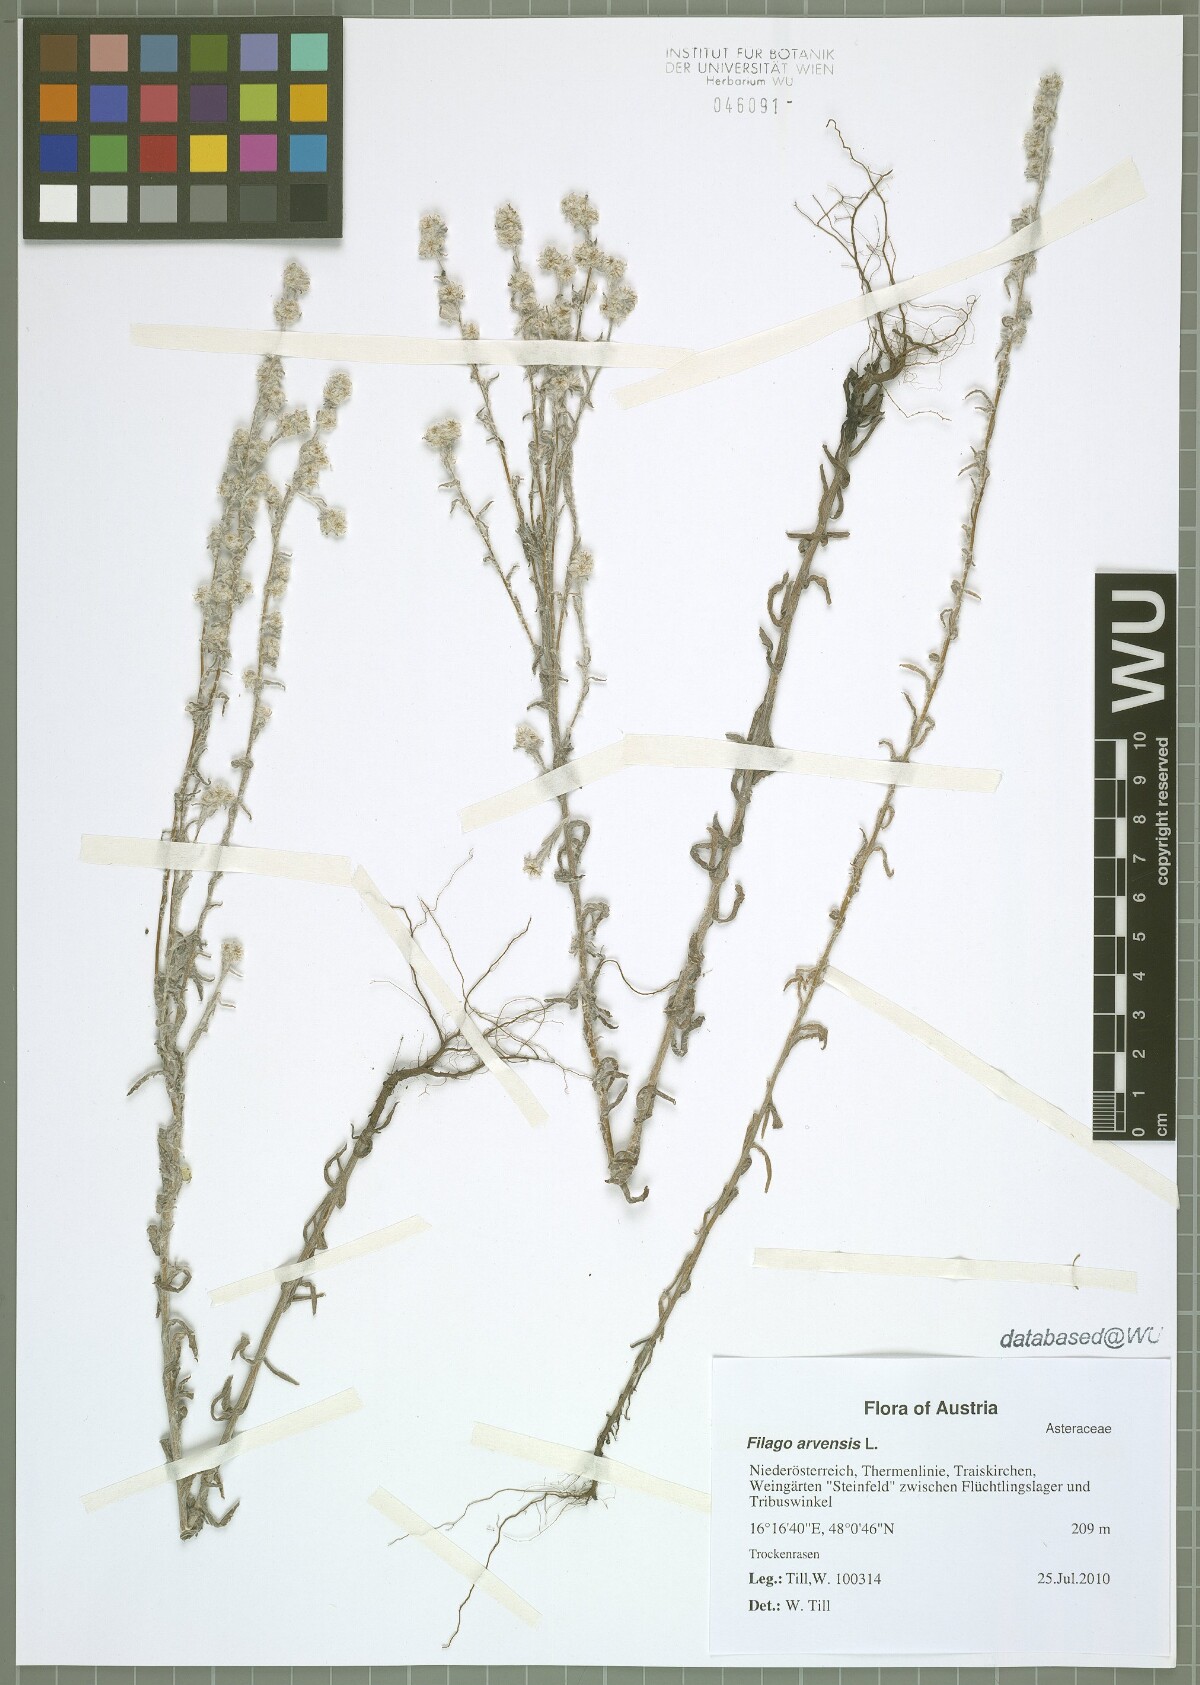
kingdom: Plantae
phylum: Tracheophyta
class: Magnoliopsida
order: Asterales
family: Asteraceae
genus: Filago
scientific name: Filago arvensis
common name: Field cudweed
